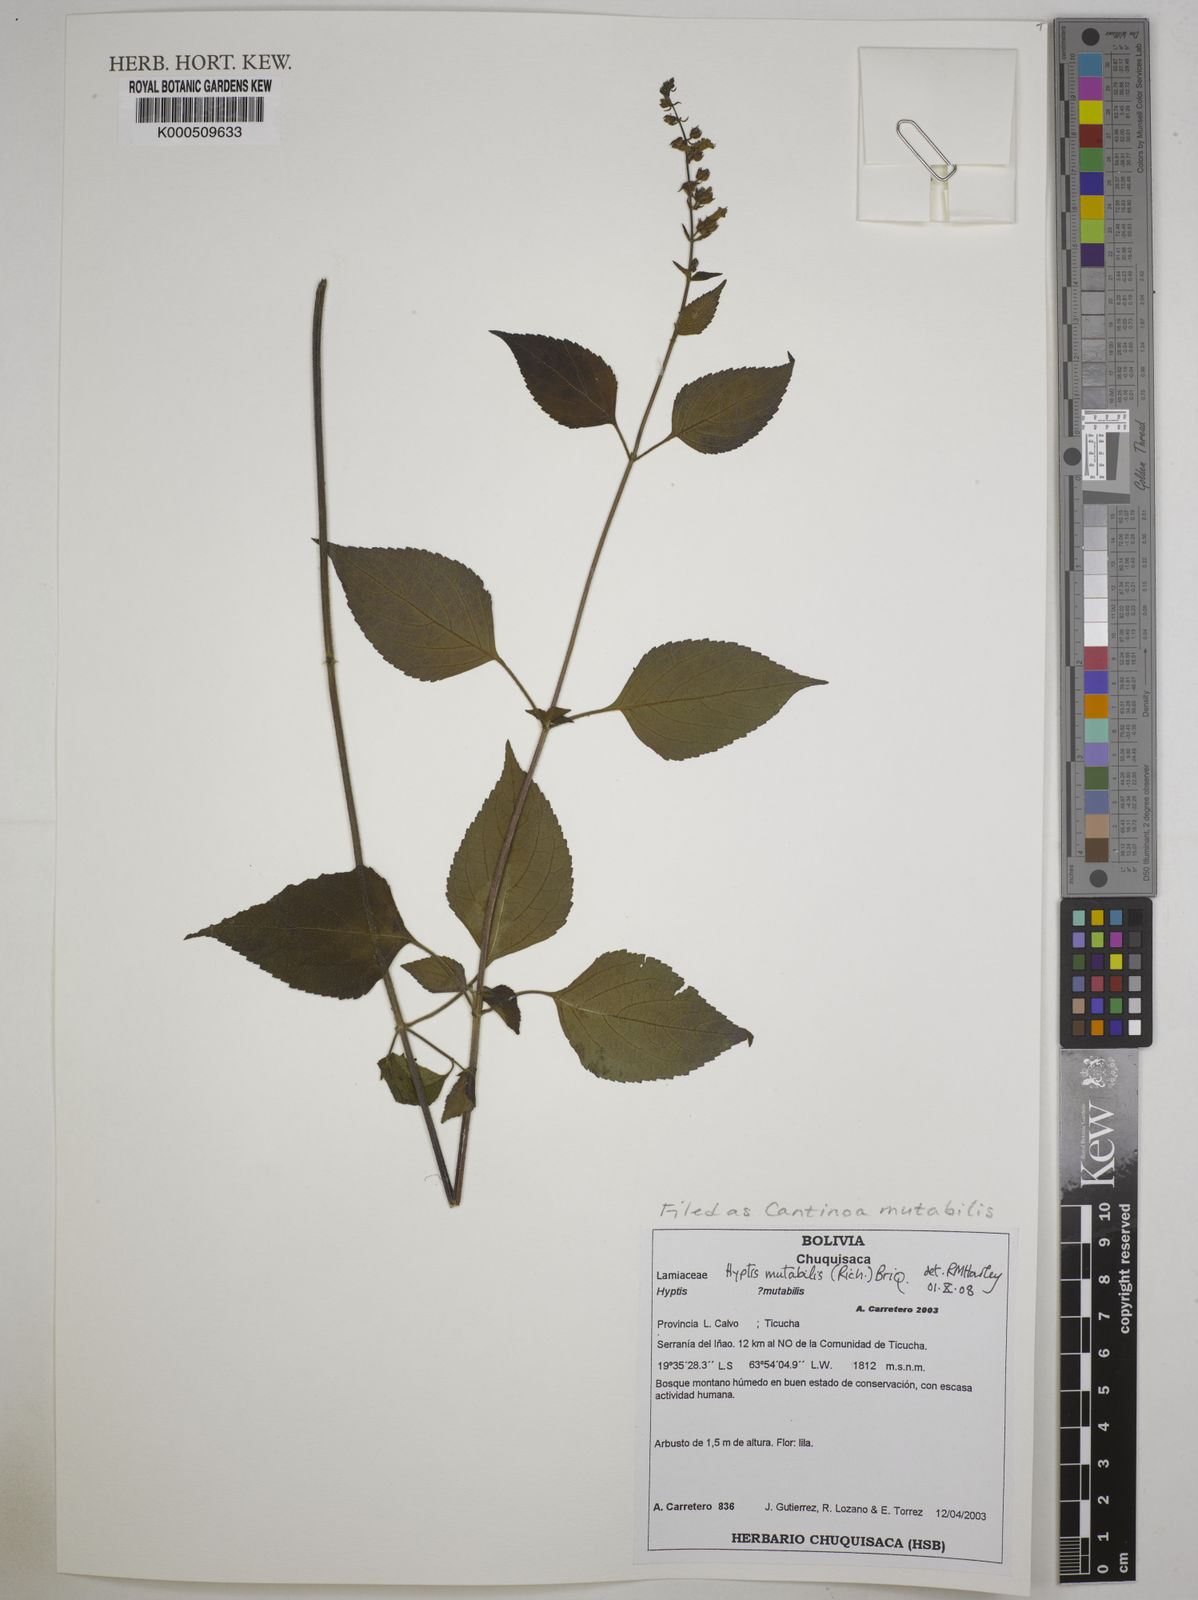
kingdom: Plantae
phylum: Tracheophyta
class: Magnoliopsida
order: Lamiales
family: Lamiaceae
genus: Cantinoa
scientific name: Cantinoa mutabilis
